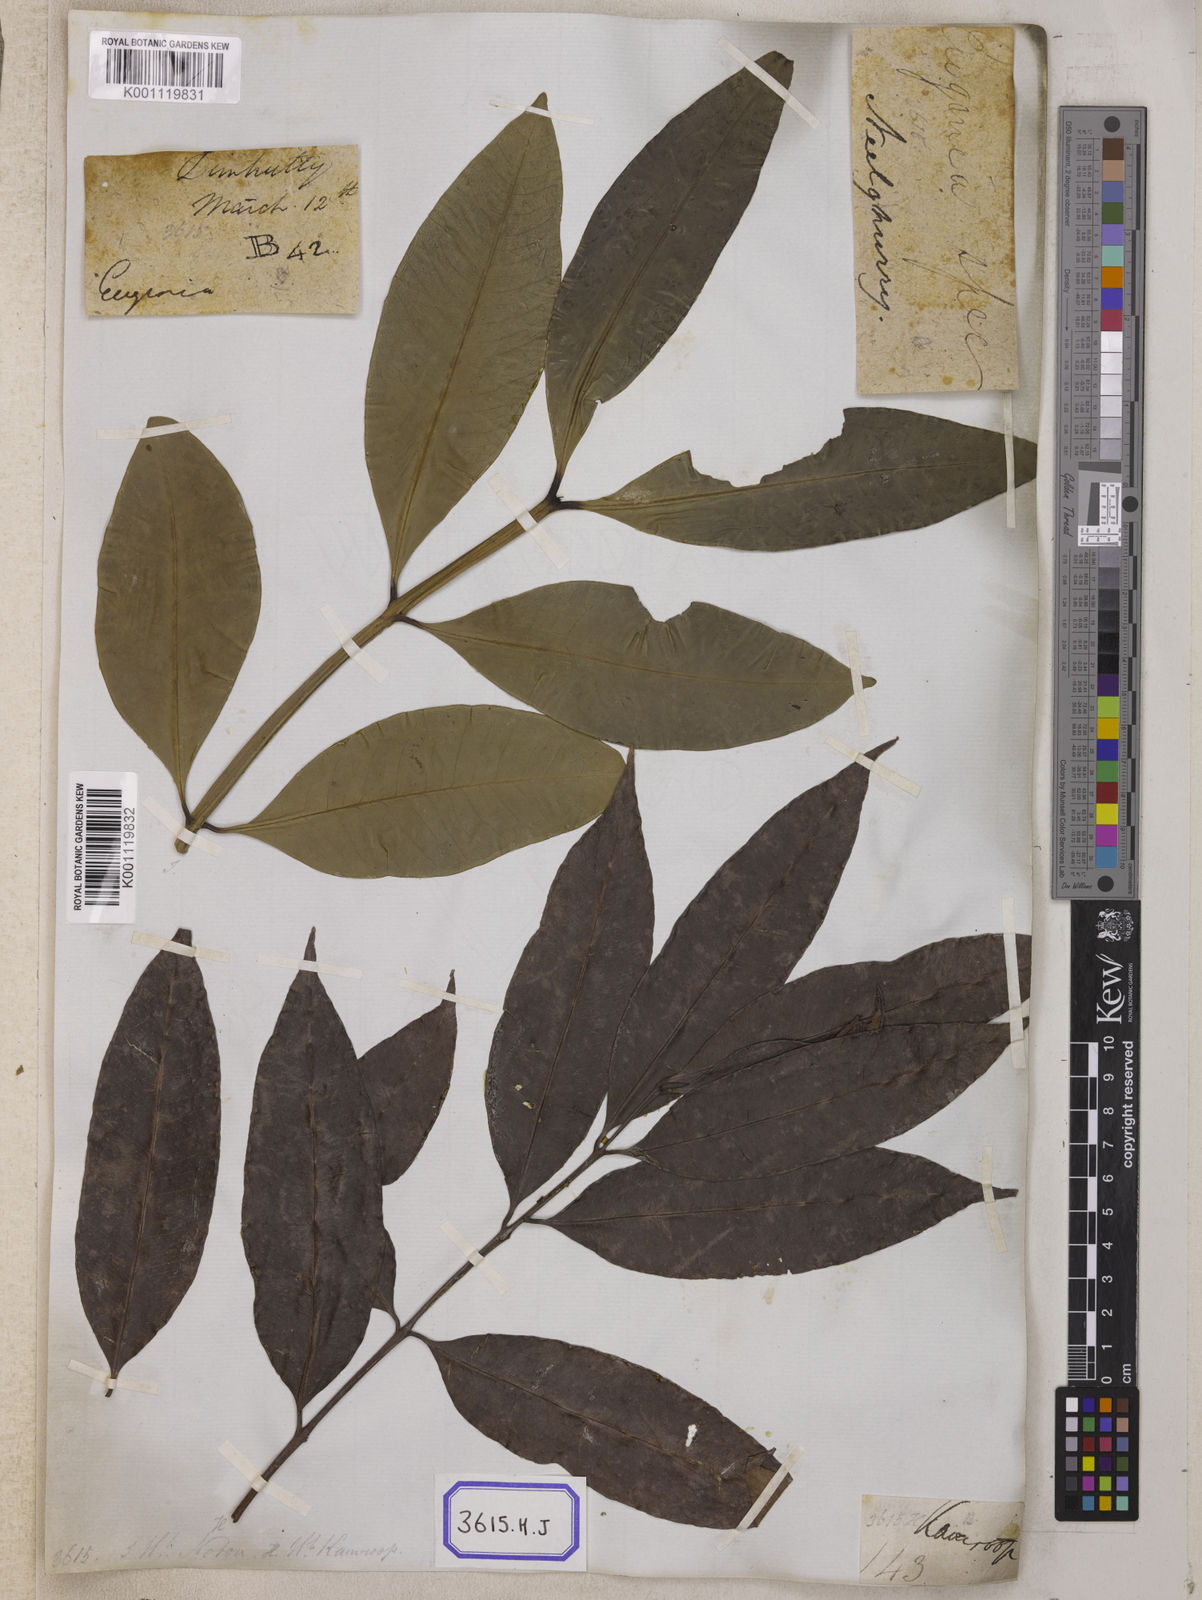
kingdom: Plantae
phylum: Tracheophyta
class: Magnoliopsida
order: Myrtales
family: Myrtaceae
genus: Syzygium
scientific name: Syzygium jambos
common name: Malabar plum
